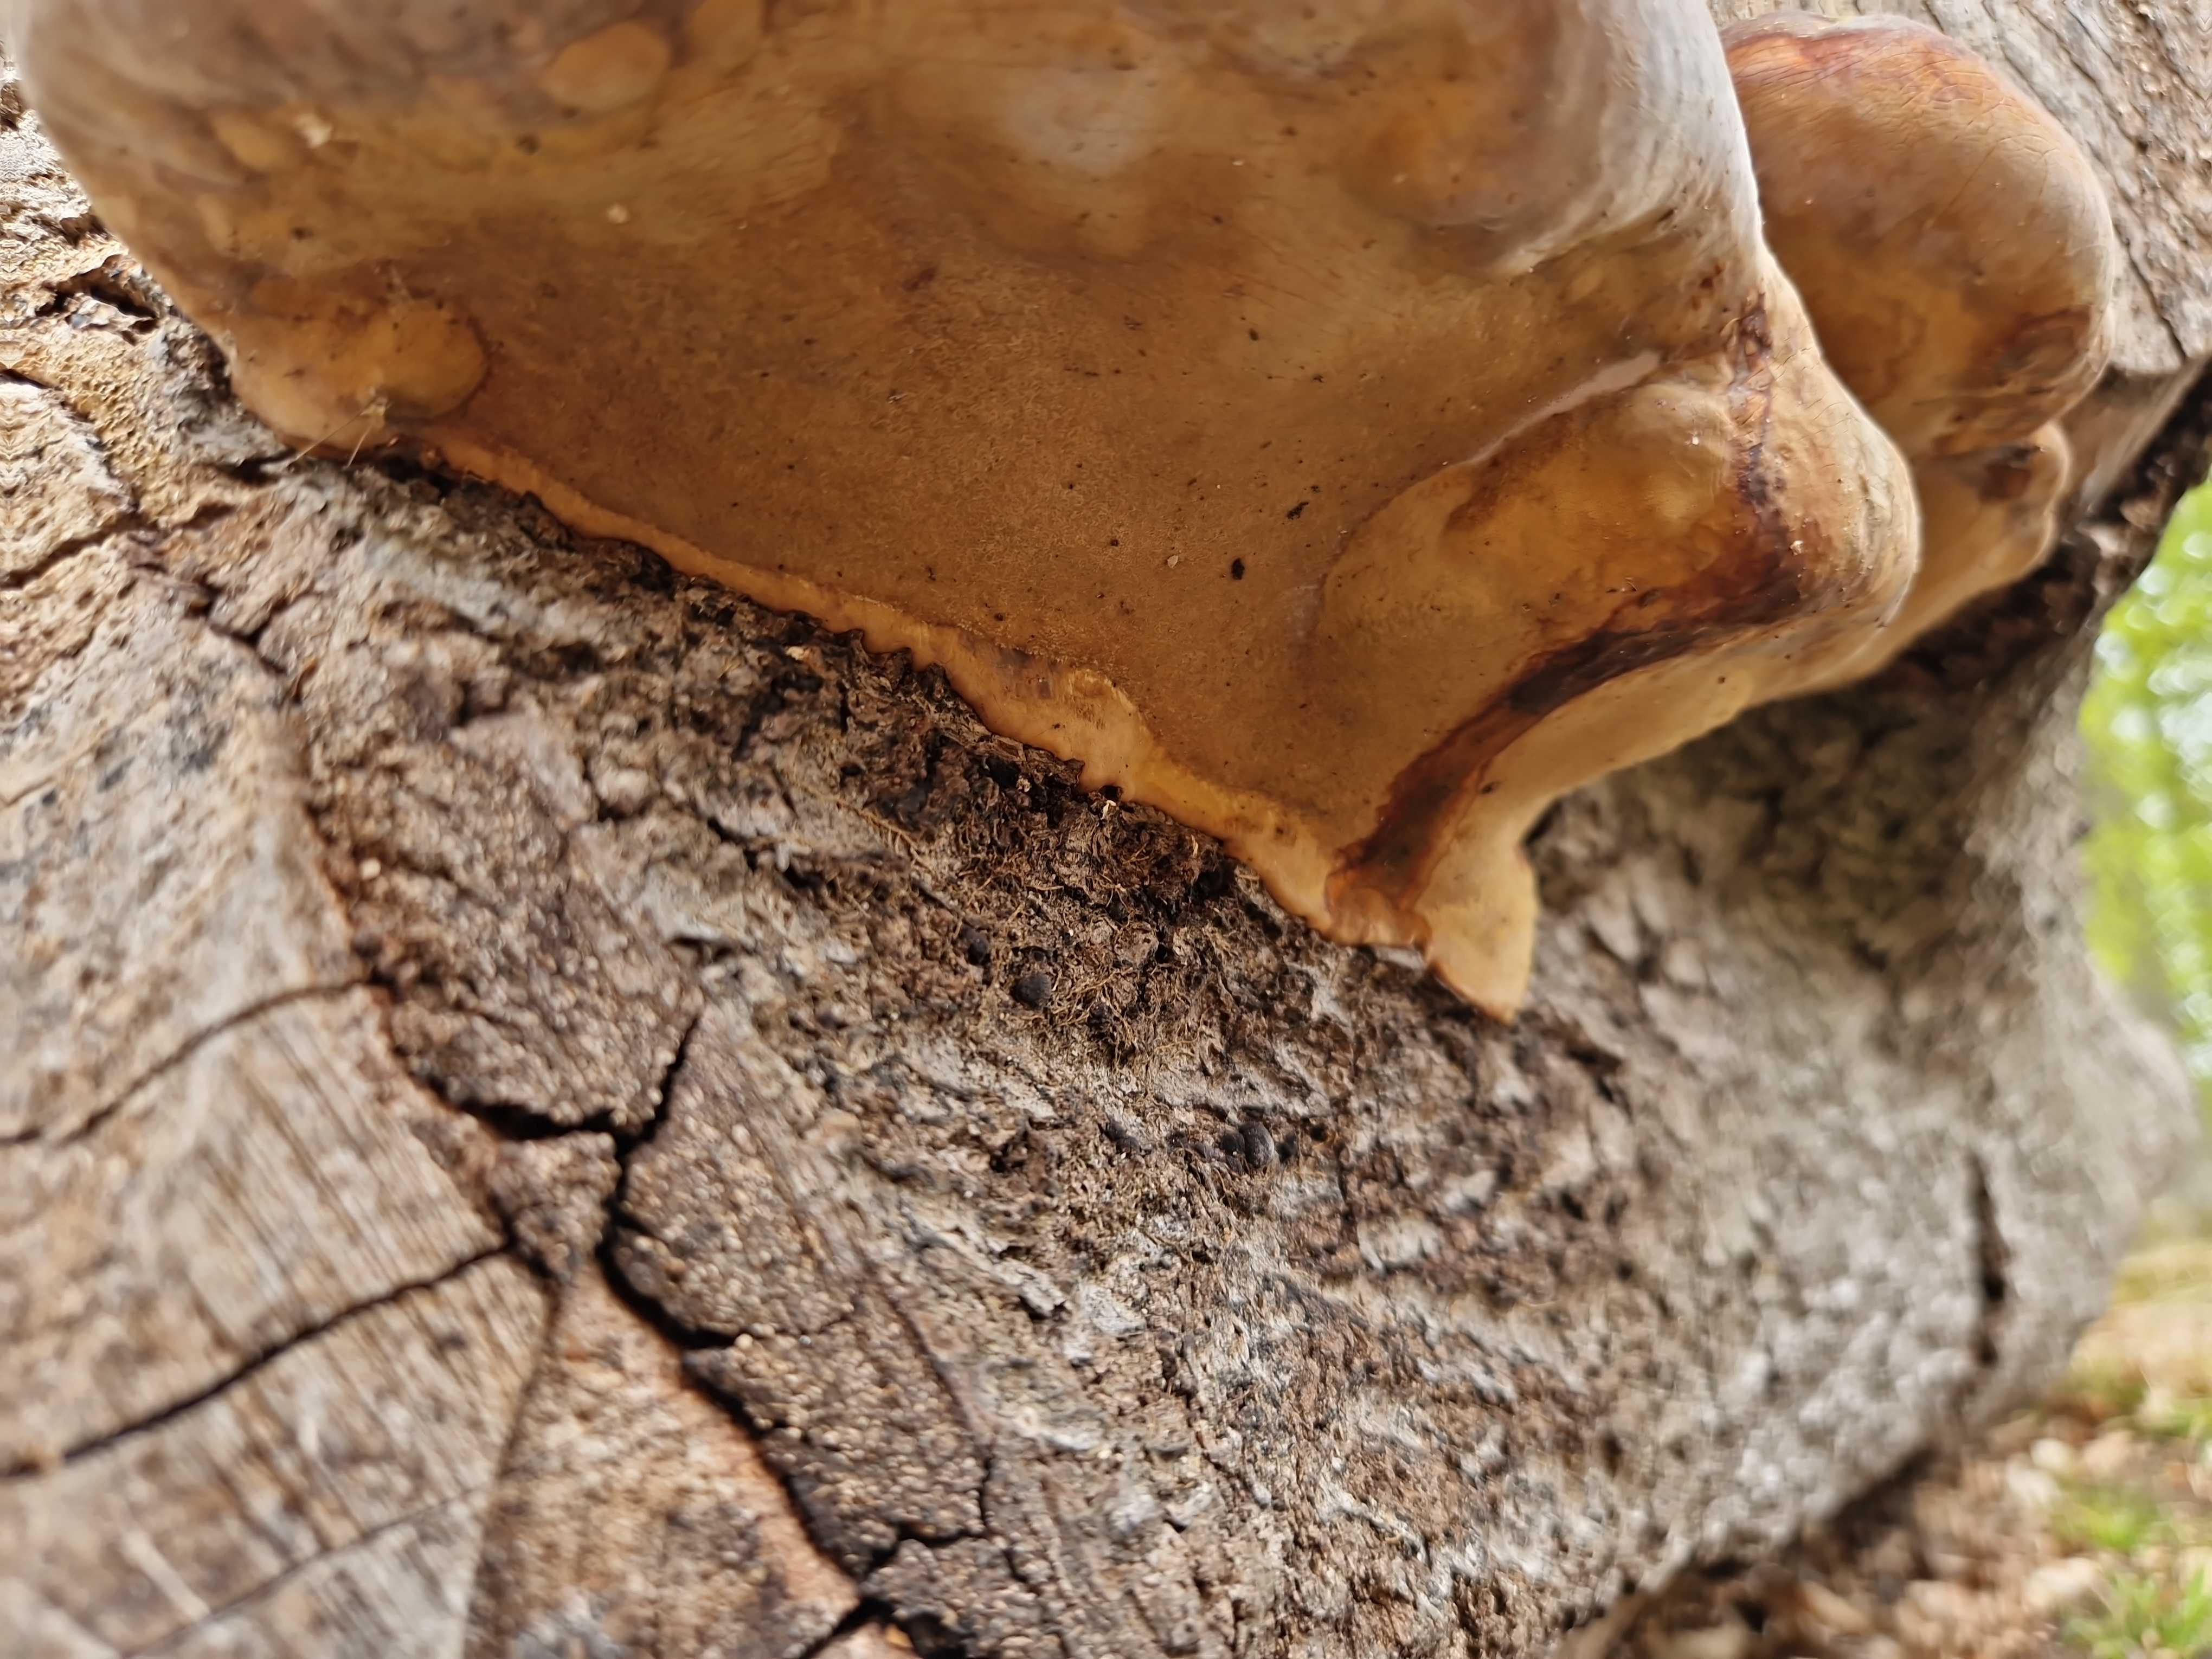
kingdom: Fungi
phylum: Basidiomycota
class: Agaricomycetes
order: Polyporales
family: Fomitopsidaceae
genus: Fomitopsis
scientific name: Fomitopsis pinicola
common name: randbæltet hovporesvamp
